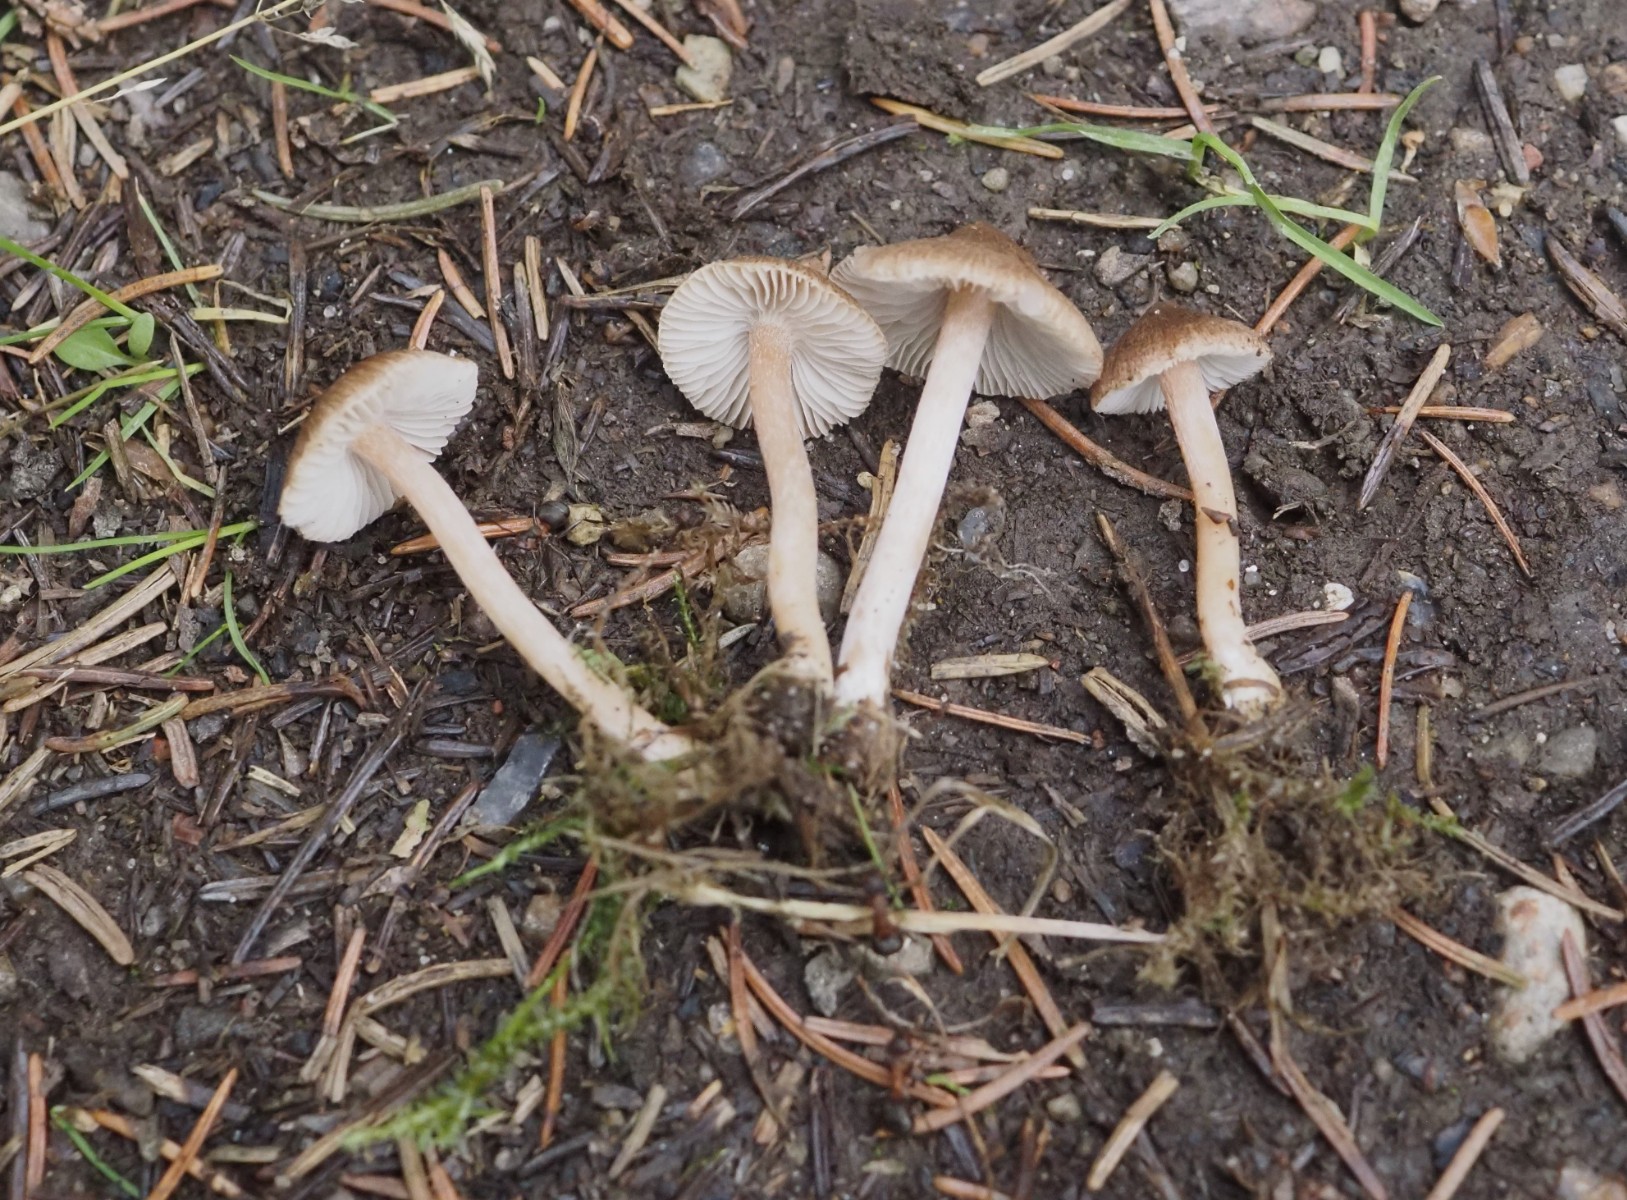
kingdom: Fungi
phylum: Basidiomycota
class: Agaricomycetes
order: Agaricales
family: Inocybaceae
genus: Inocybe
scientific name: Inocybe
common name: trævlhat
